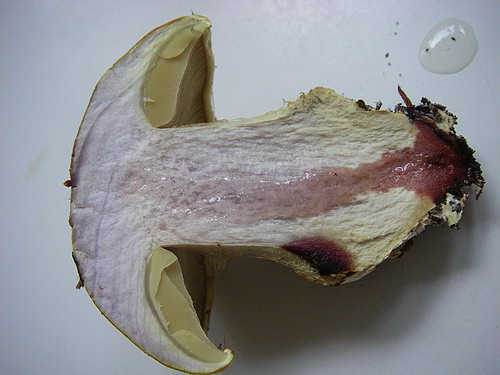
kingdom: Fungi
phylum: Basidiomycota
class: Agaricomycetes
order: Agaricales
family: Cortinariaceae
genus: Cortinarius
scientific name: Cortinarius bergeronii
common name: prægtig slørhat
